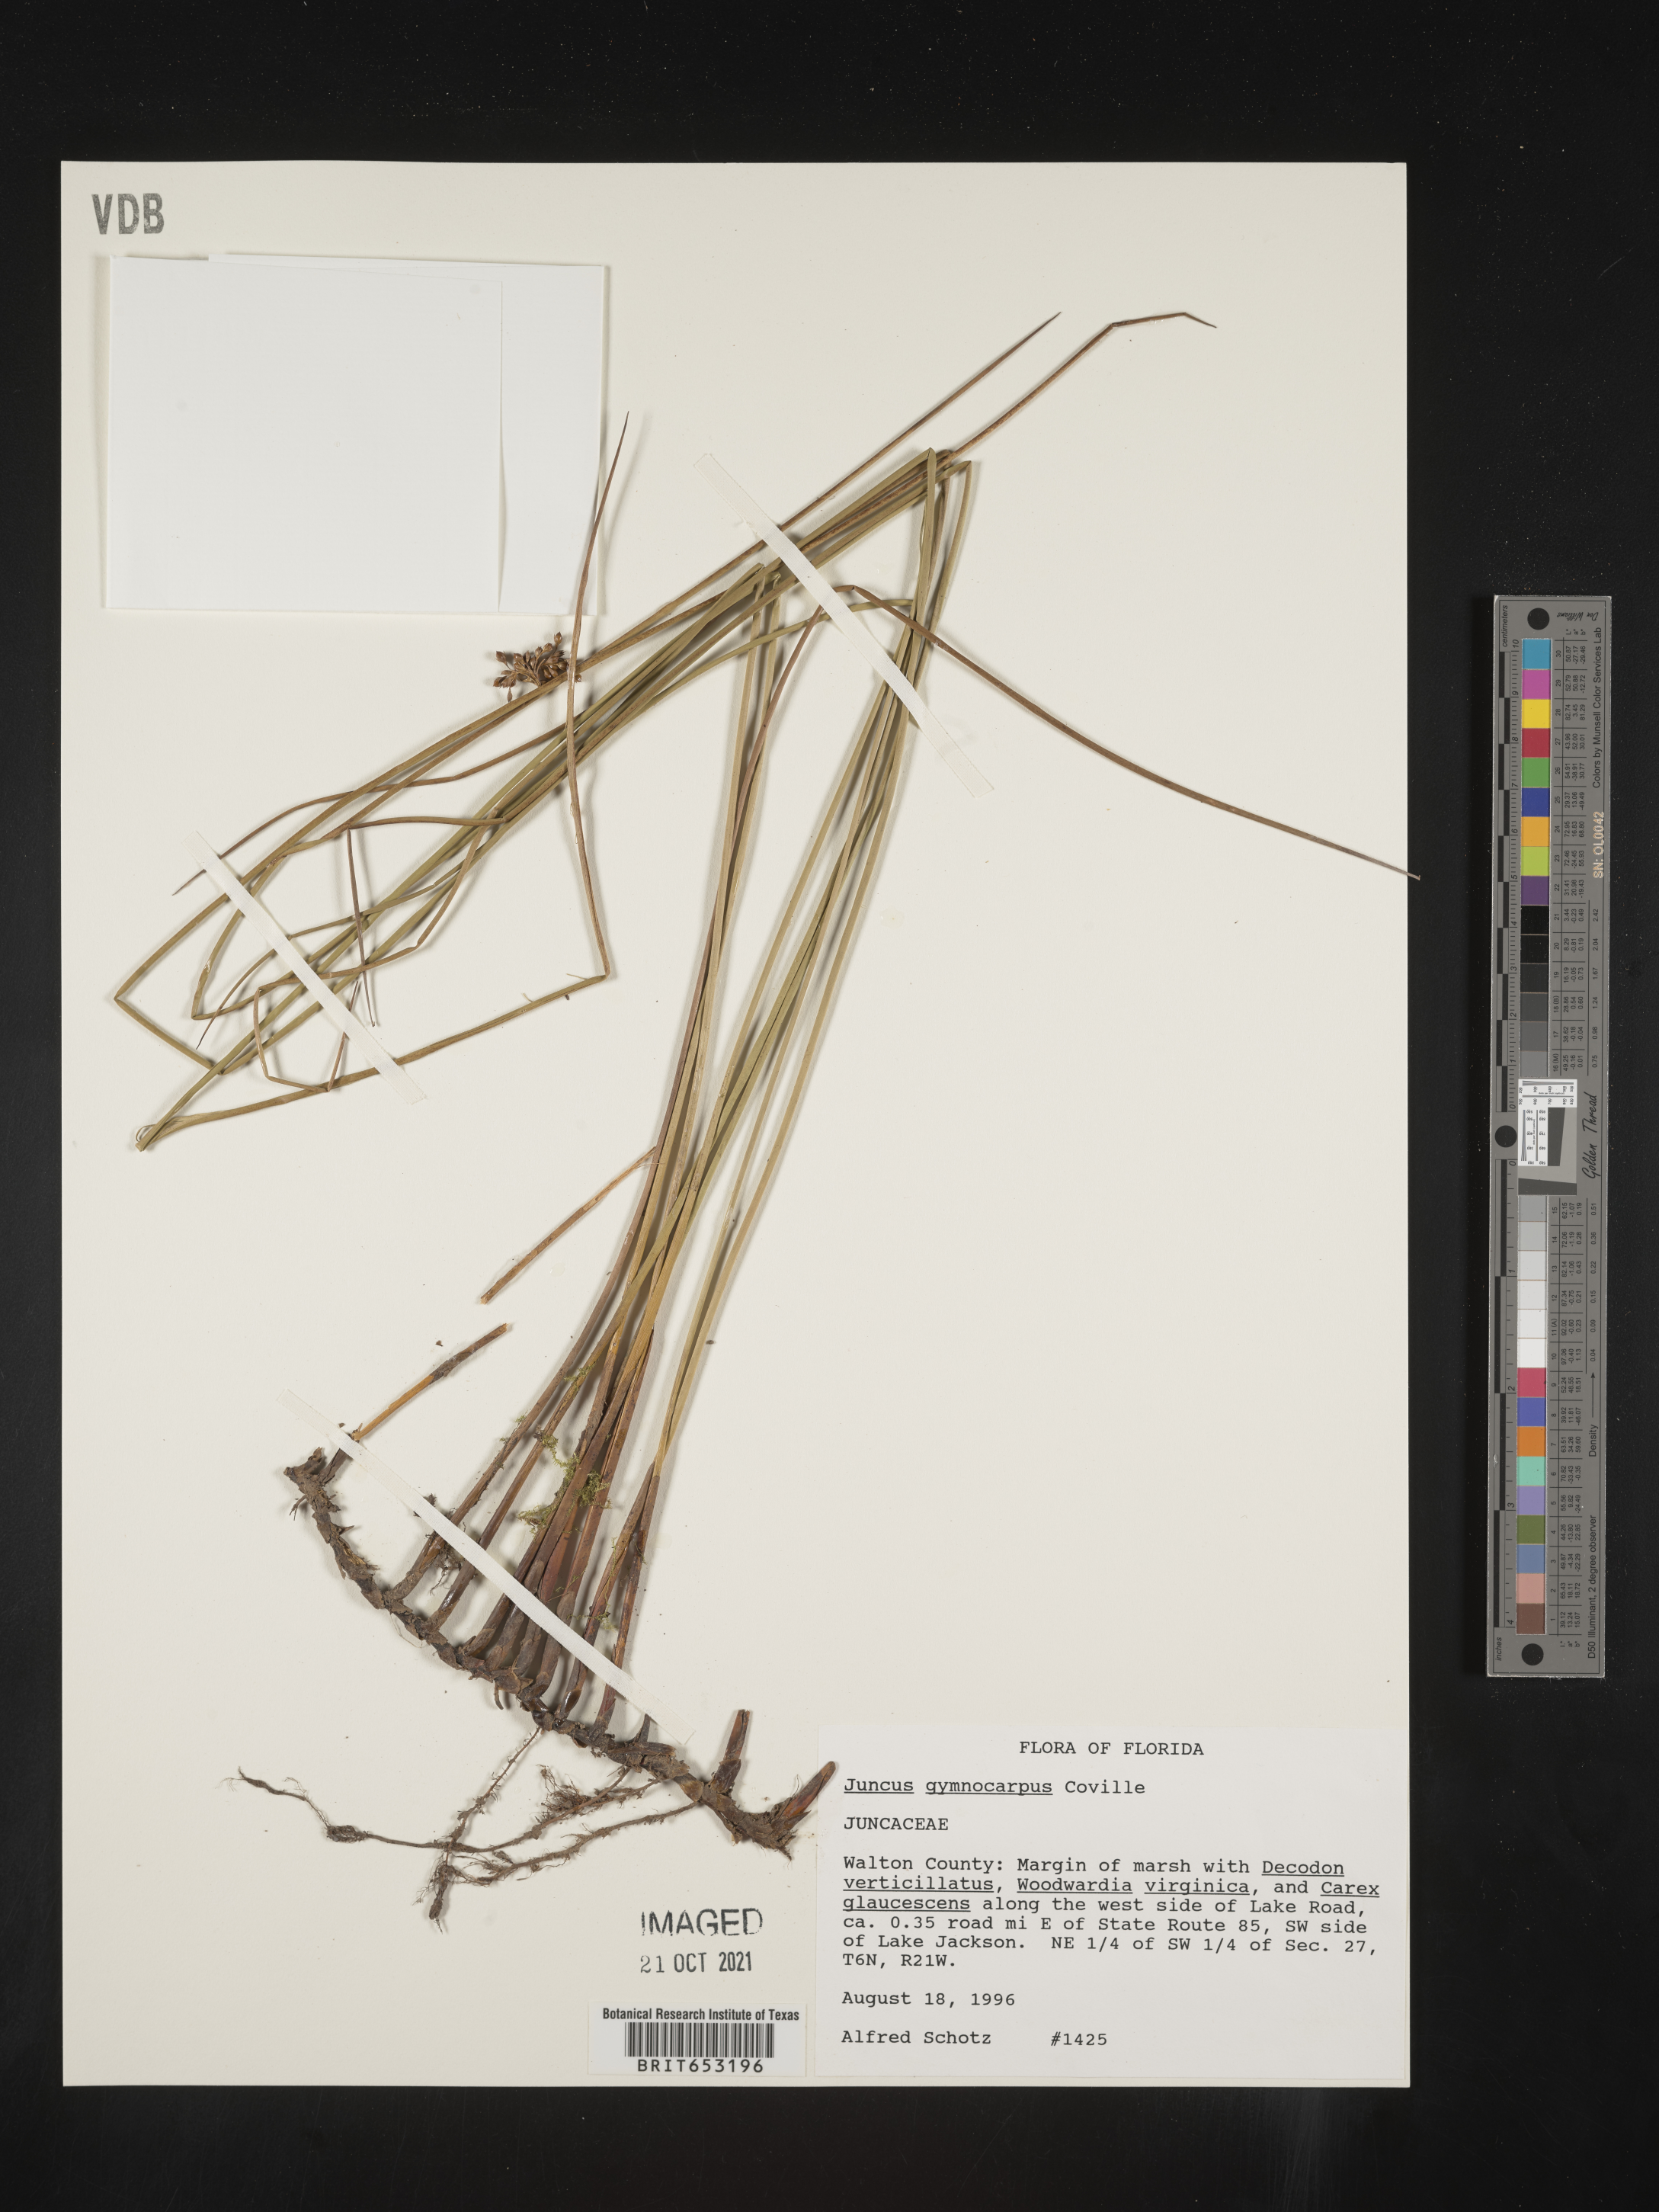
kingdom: Plantae
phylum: Tracheophyta
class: Liliopsida
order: Poales
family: Juncaceae
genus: Juncus
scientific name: Juncus gymnocarpus
